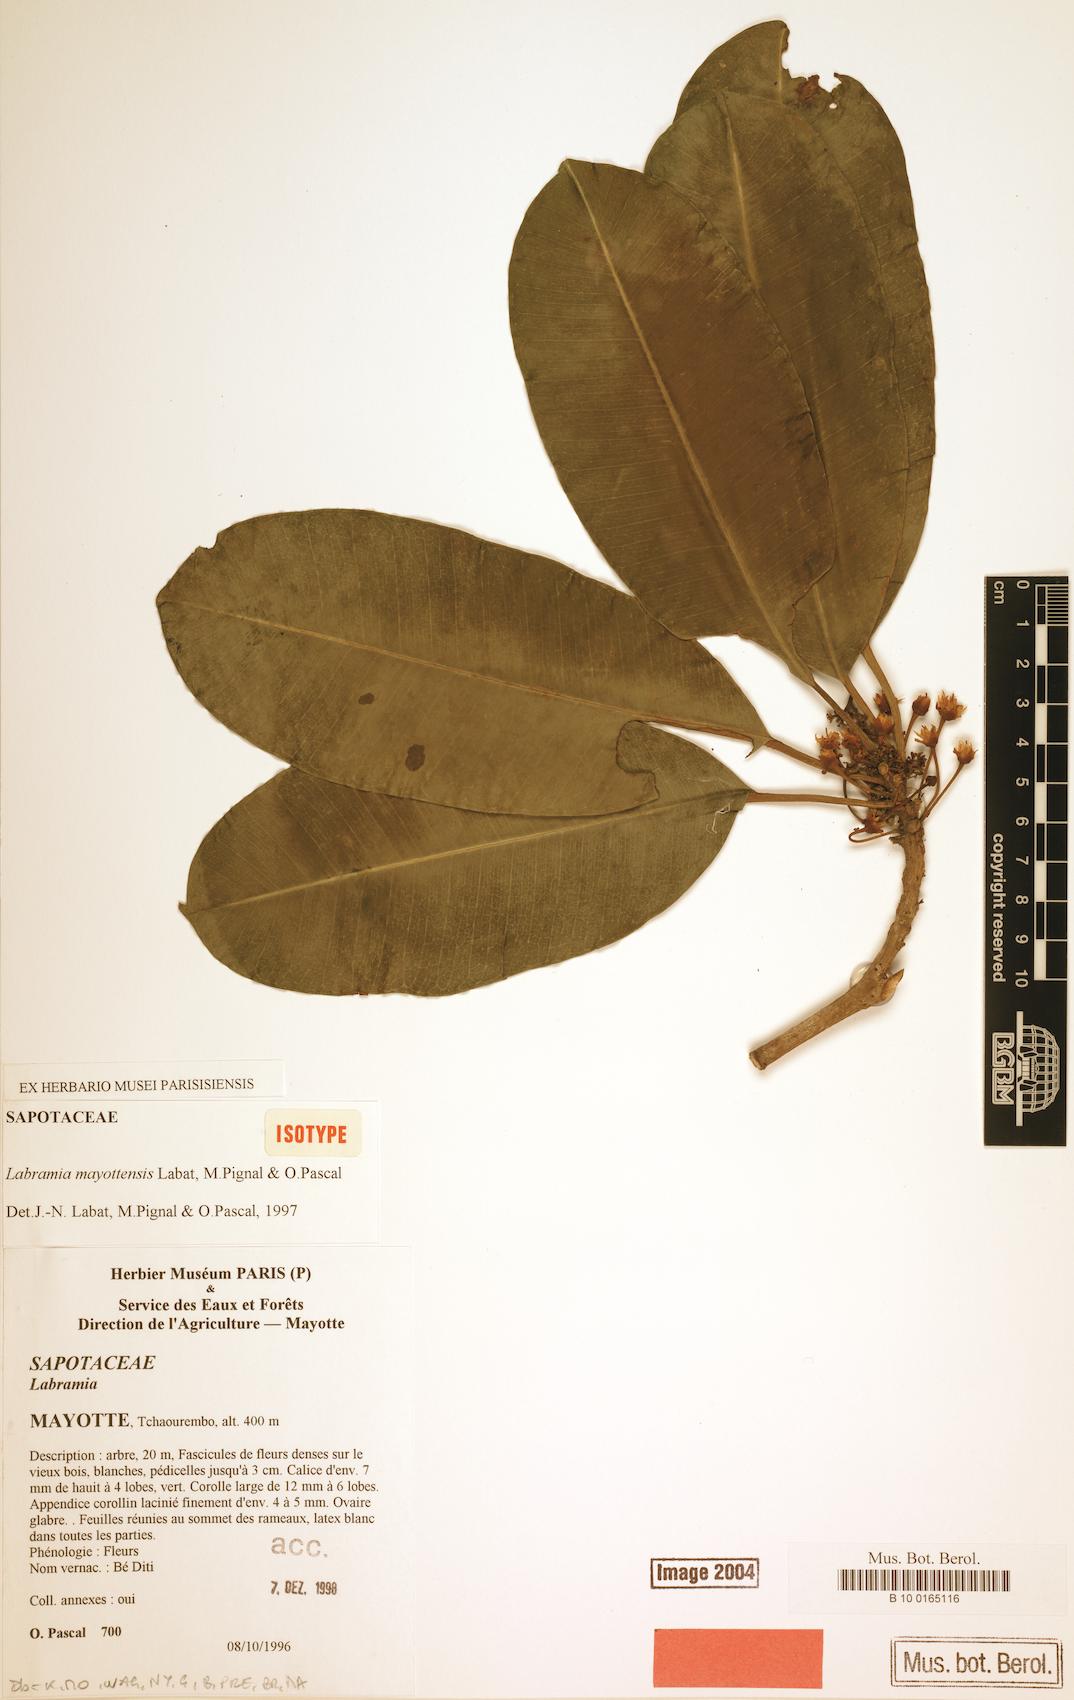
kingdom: Plantae
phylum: Tracheophyta
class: Magnoliopsida
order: Ericales
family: Sapotaceae
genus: Labramia
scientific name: Labramia mayottensis
